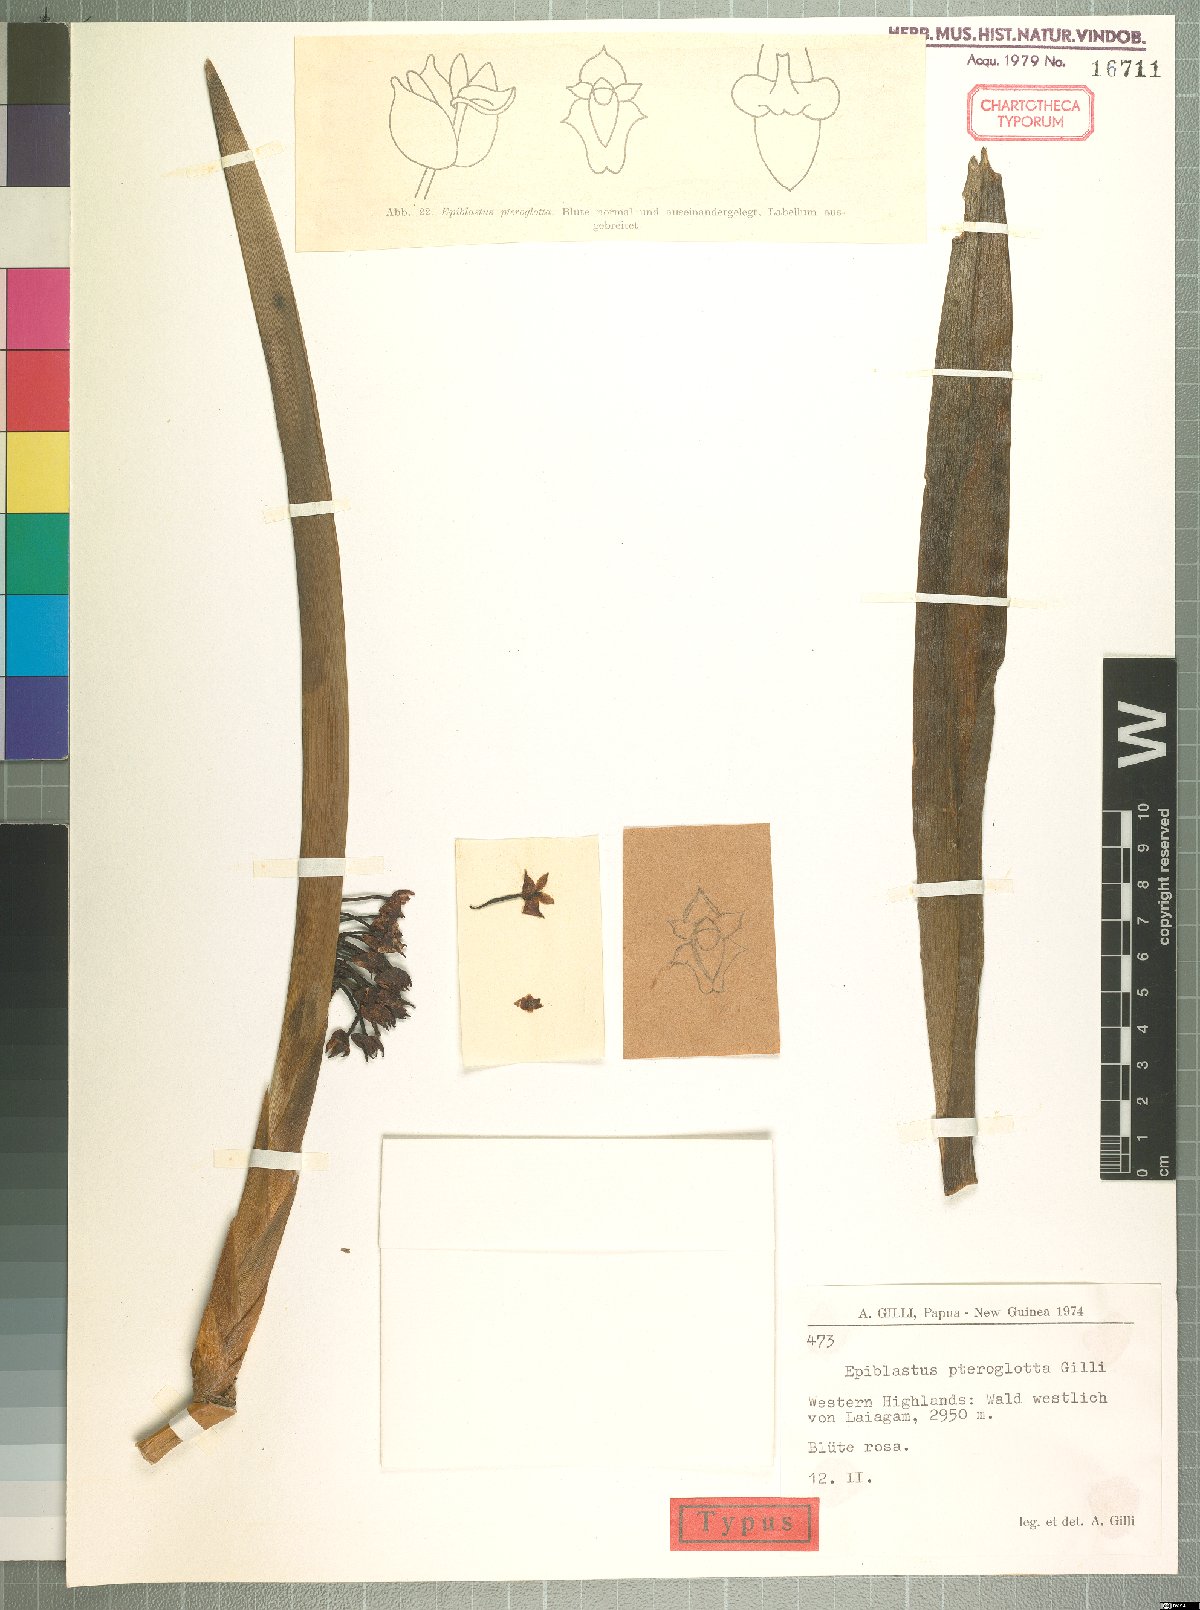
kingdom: Plantae
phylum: Tracheophyta
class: Liliopsida
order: Asparagales
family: Orchidaceae
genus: Epiblastus
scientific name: Epiblastus pteroglotta
